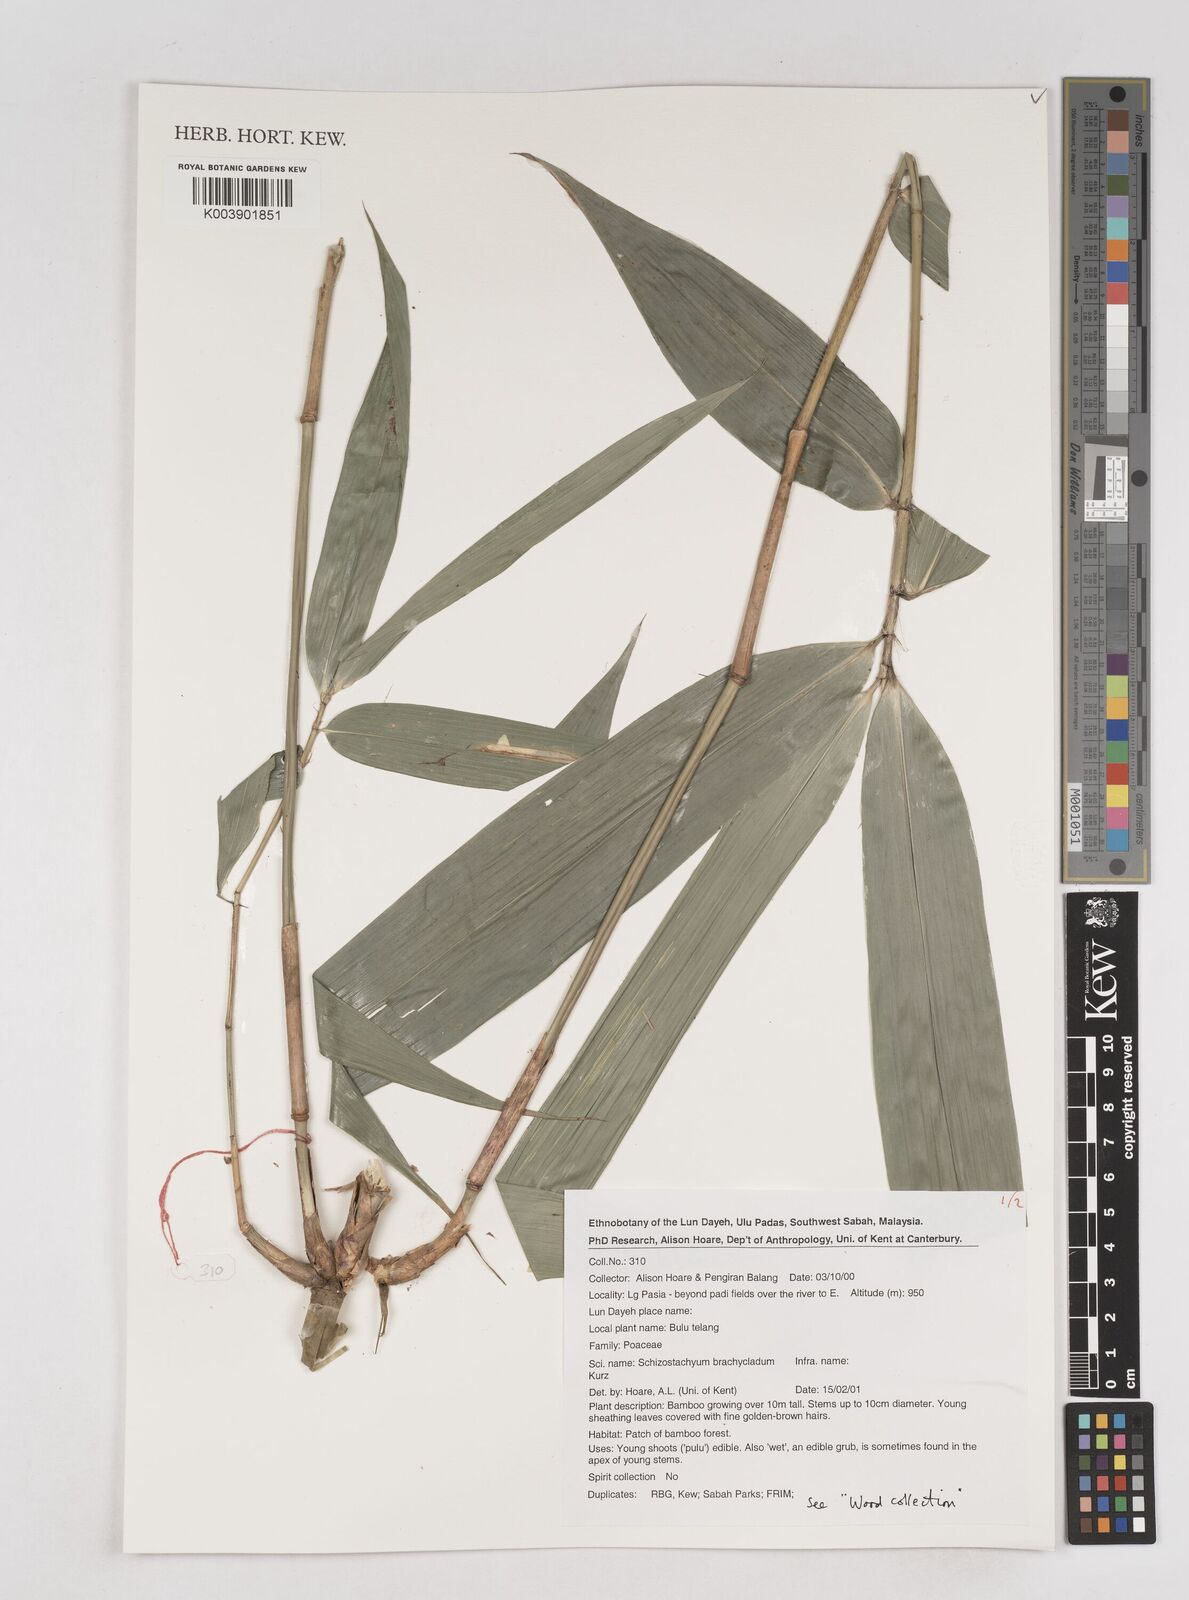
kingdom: Plantae
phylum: Tracheophyta
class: Liliopsida
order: Poales
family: Poaceae
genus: Schizostachyum
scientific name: Schizostachyum brachycladum
